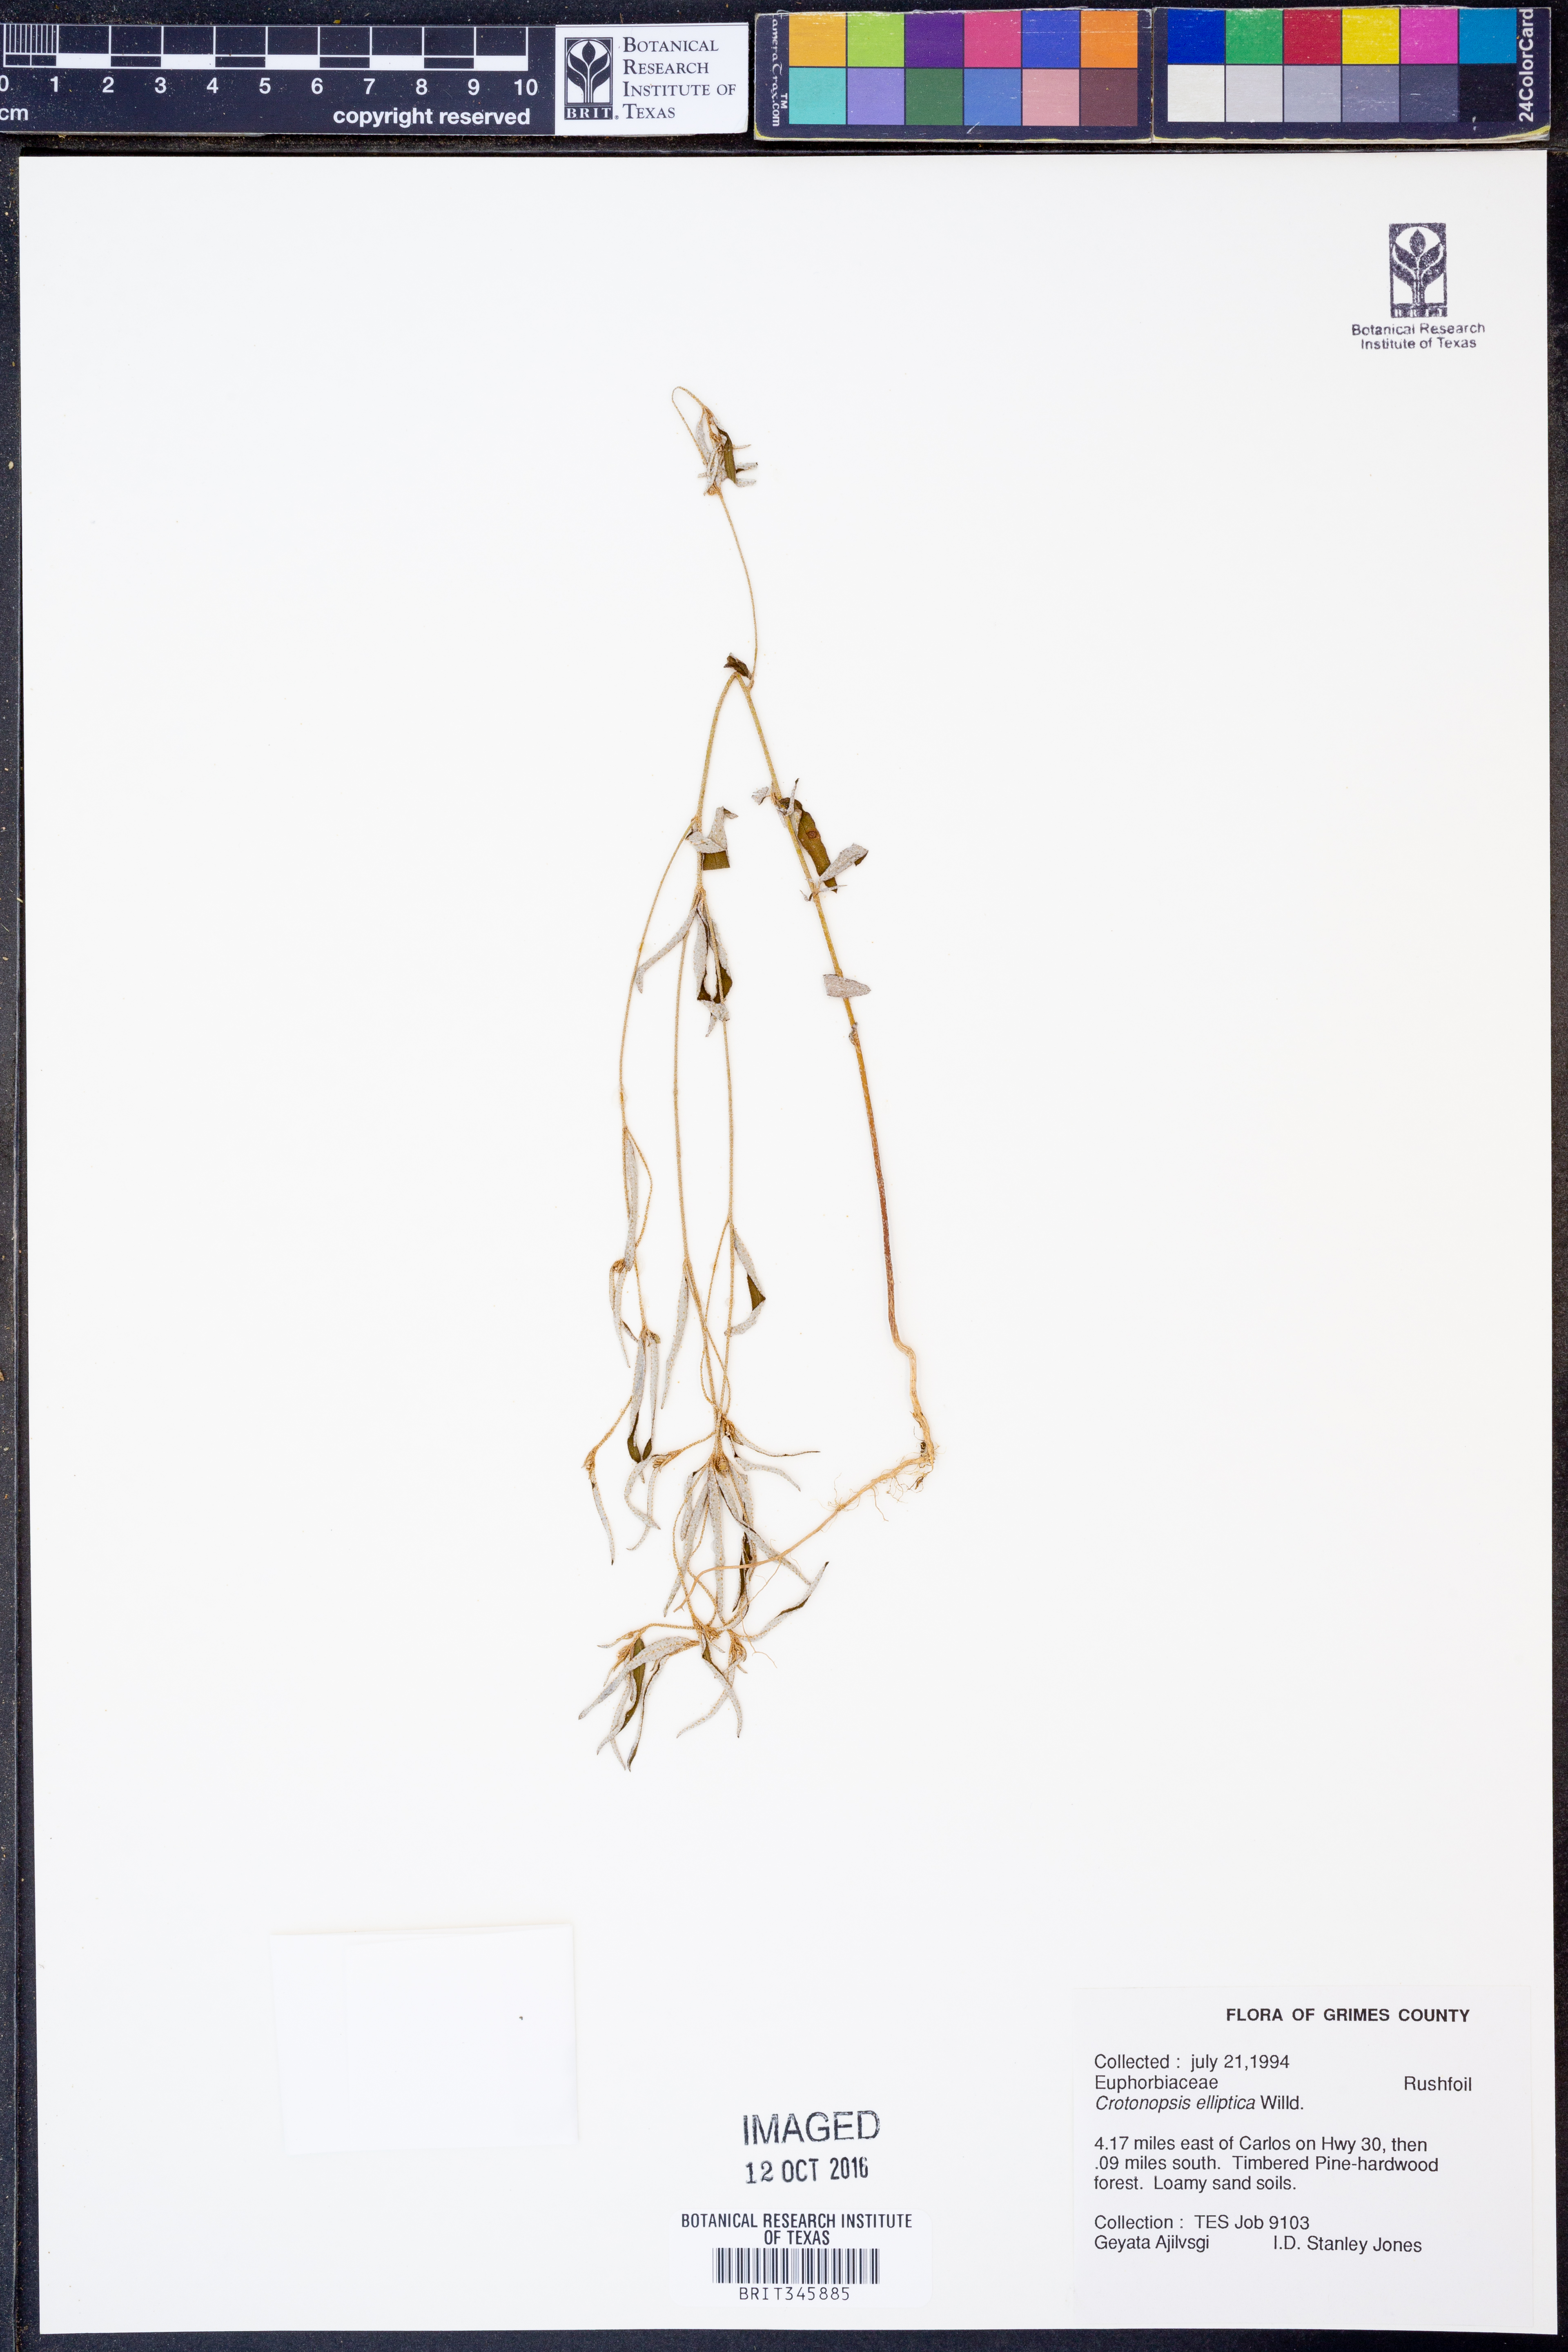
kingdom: Plantae
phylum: Tracheophyta
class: Magnoliopsida
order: Malpighiales
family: Euphorbiaceae
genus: Croton
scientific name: Croton michauxii
